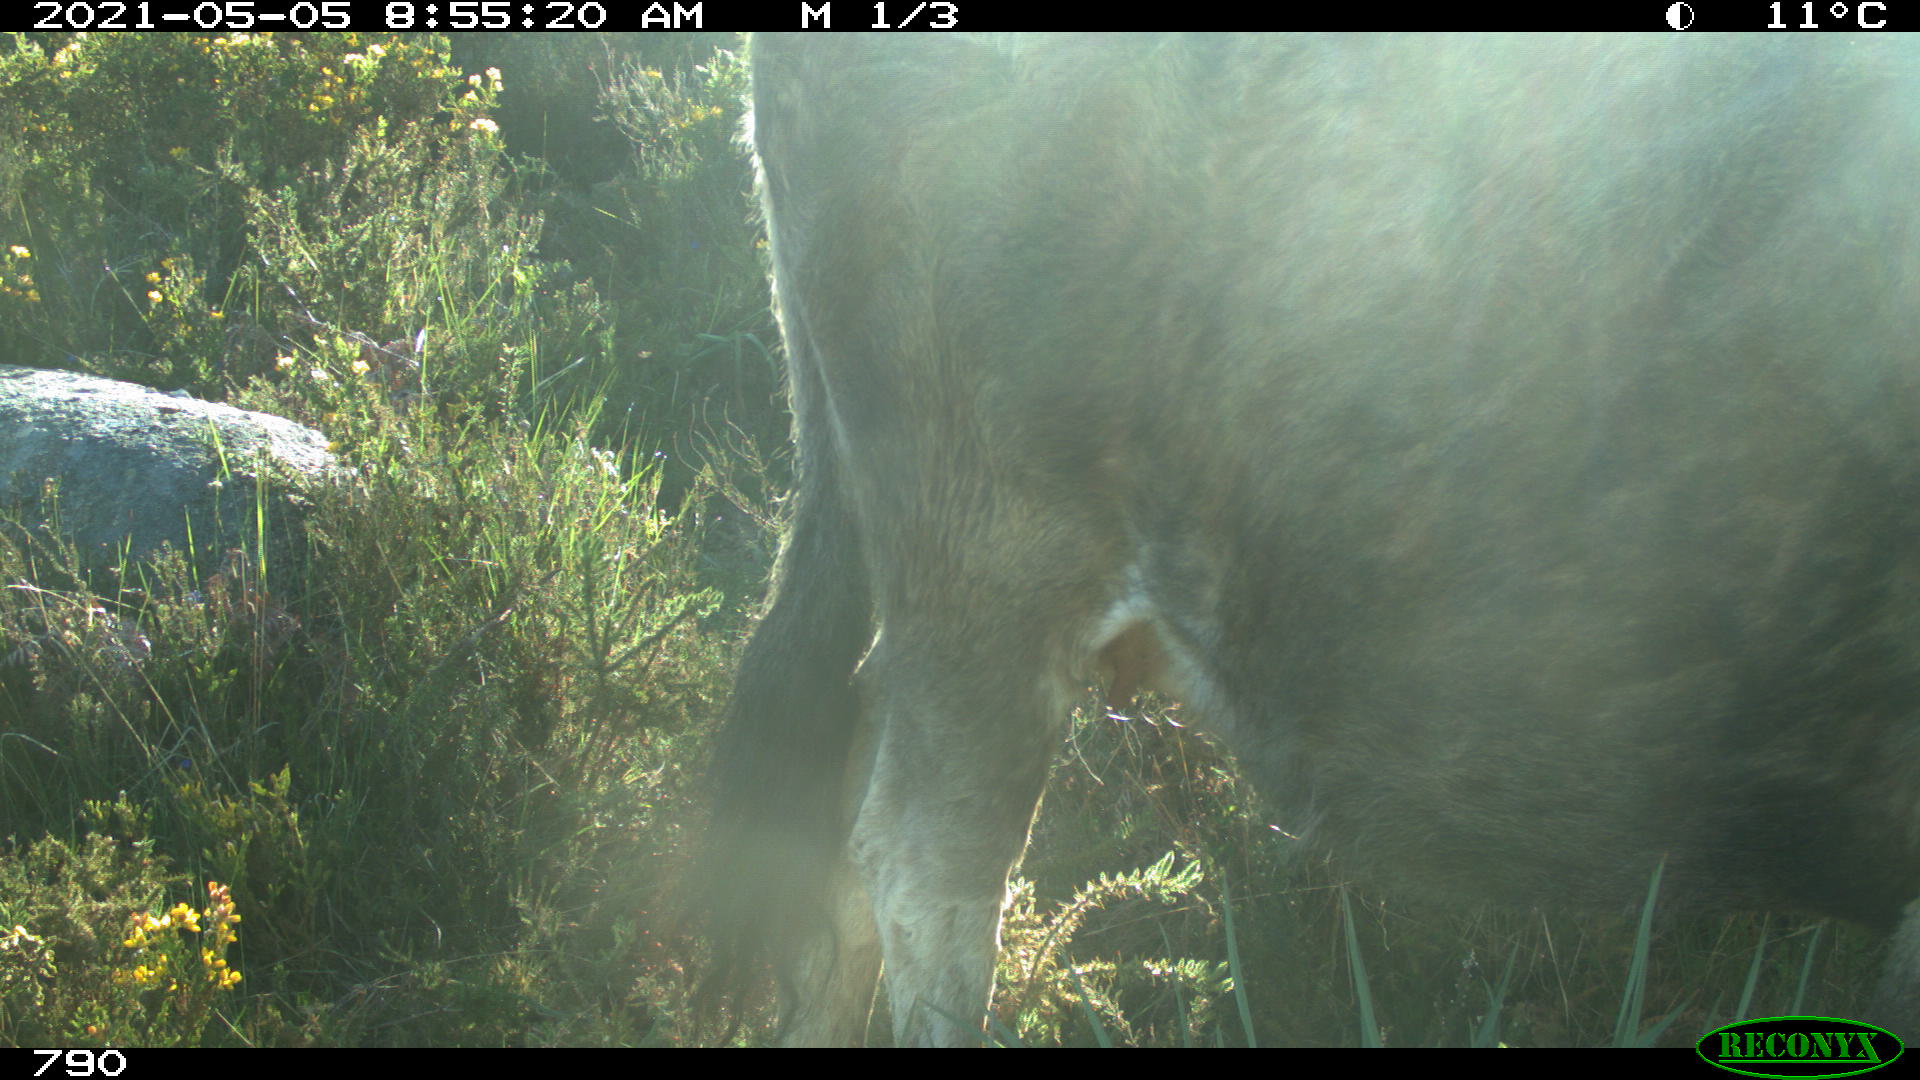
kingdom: Animalia
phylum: Chordata
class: Mammalia
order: Artiodactyla
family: Bovidae
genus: Bos
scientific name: Bos taurus
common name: Domesticated cattle
